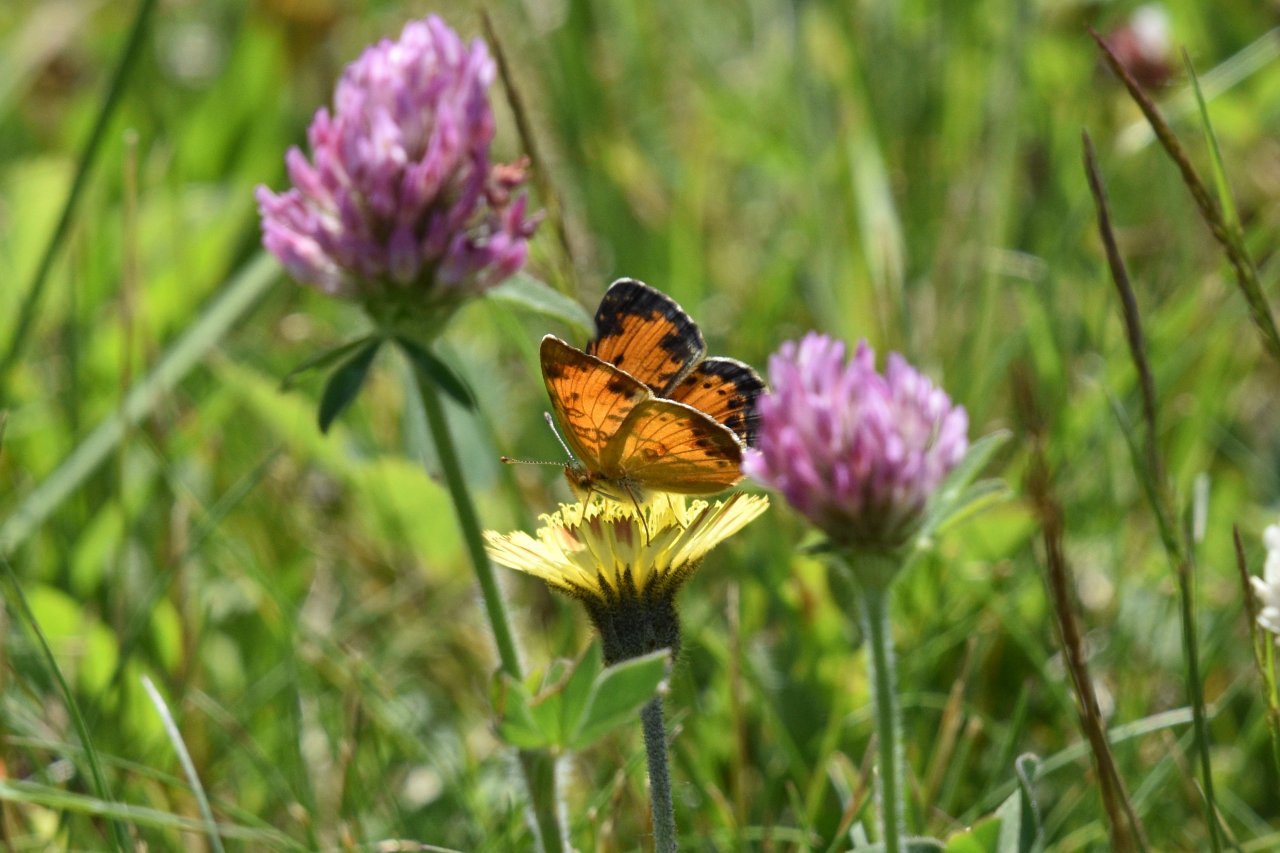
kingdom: Animalia
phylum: Arthropoda
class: Insecta
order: Lepidoptera
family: Nymphalidae
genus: Phyciodes
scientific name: Phyciodes tharos
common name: Northern Crescent
